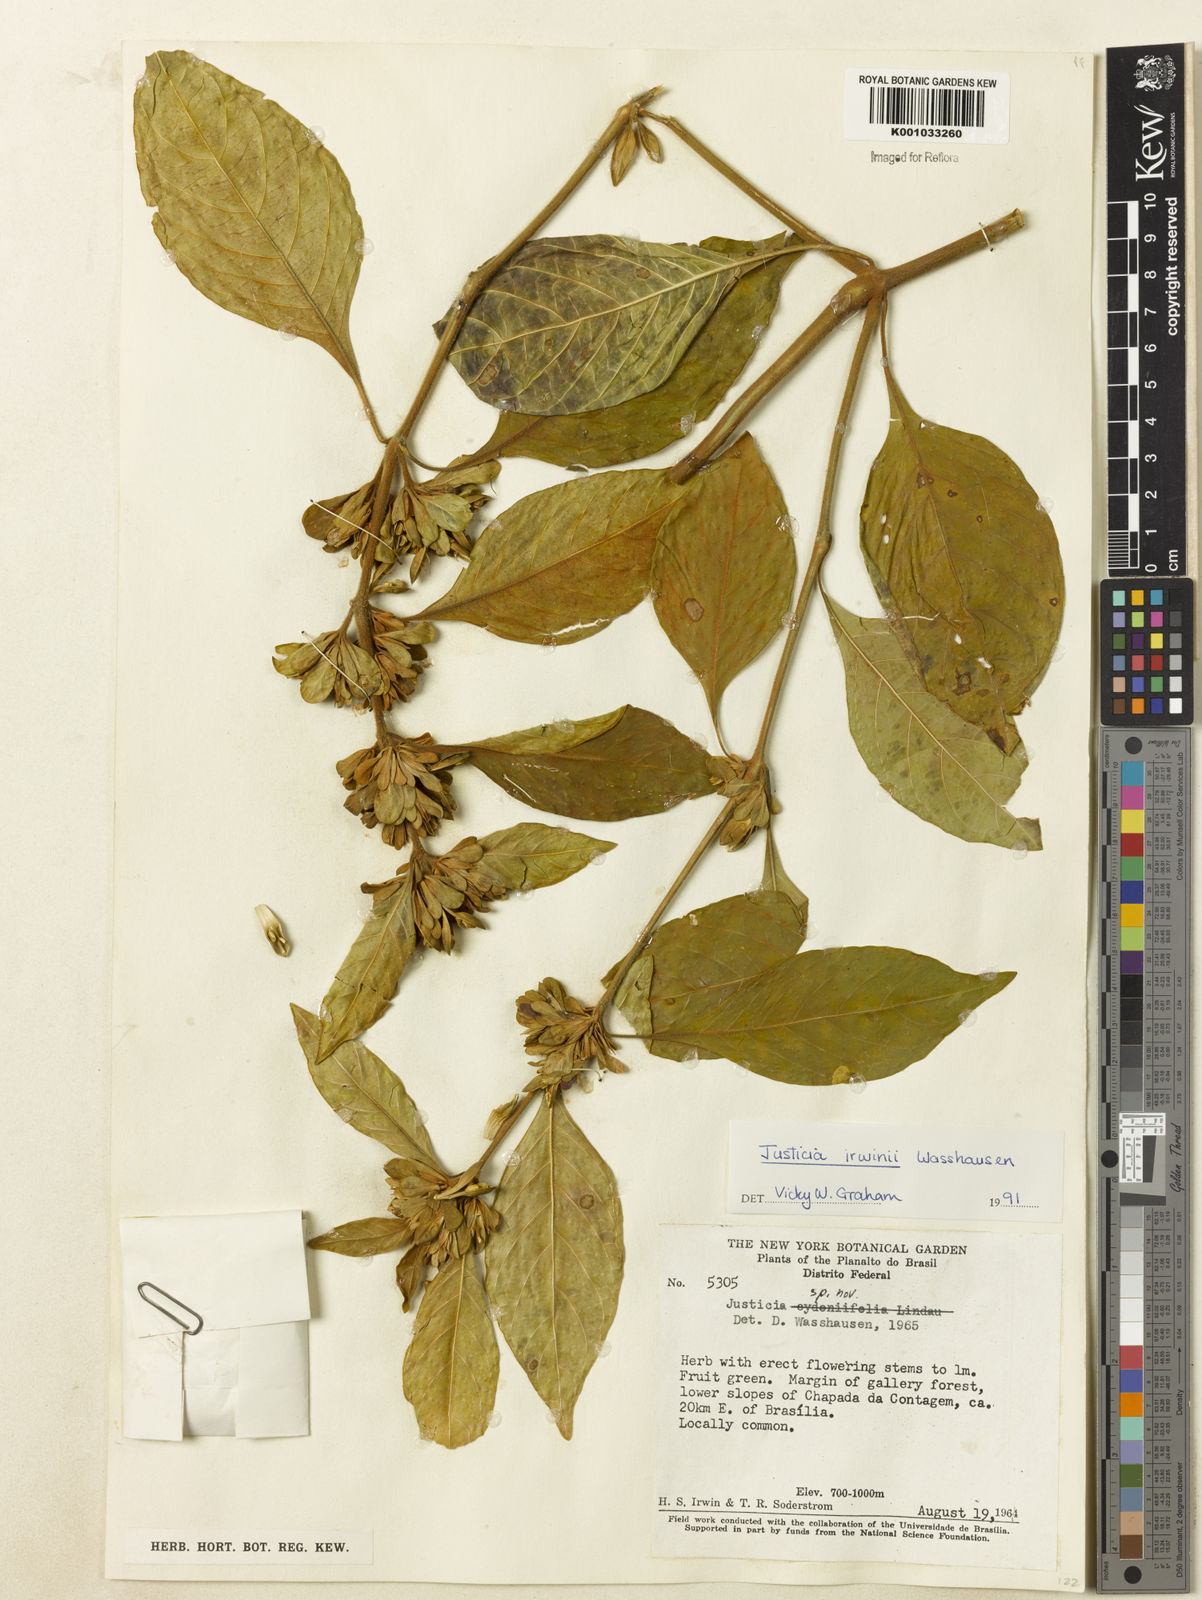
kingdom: Plantae
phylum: Tracheophyta
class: Magnoliopsida
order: Lamiales
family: Acanthaceae
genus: Justicia
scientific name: Justicia irwinii
